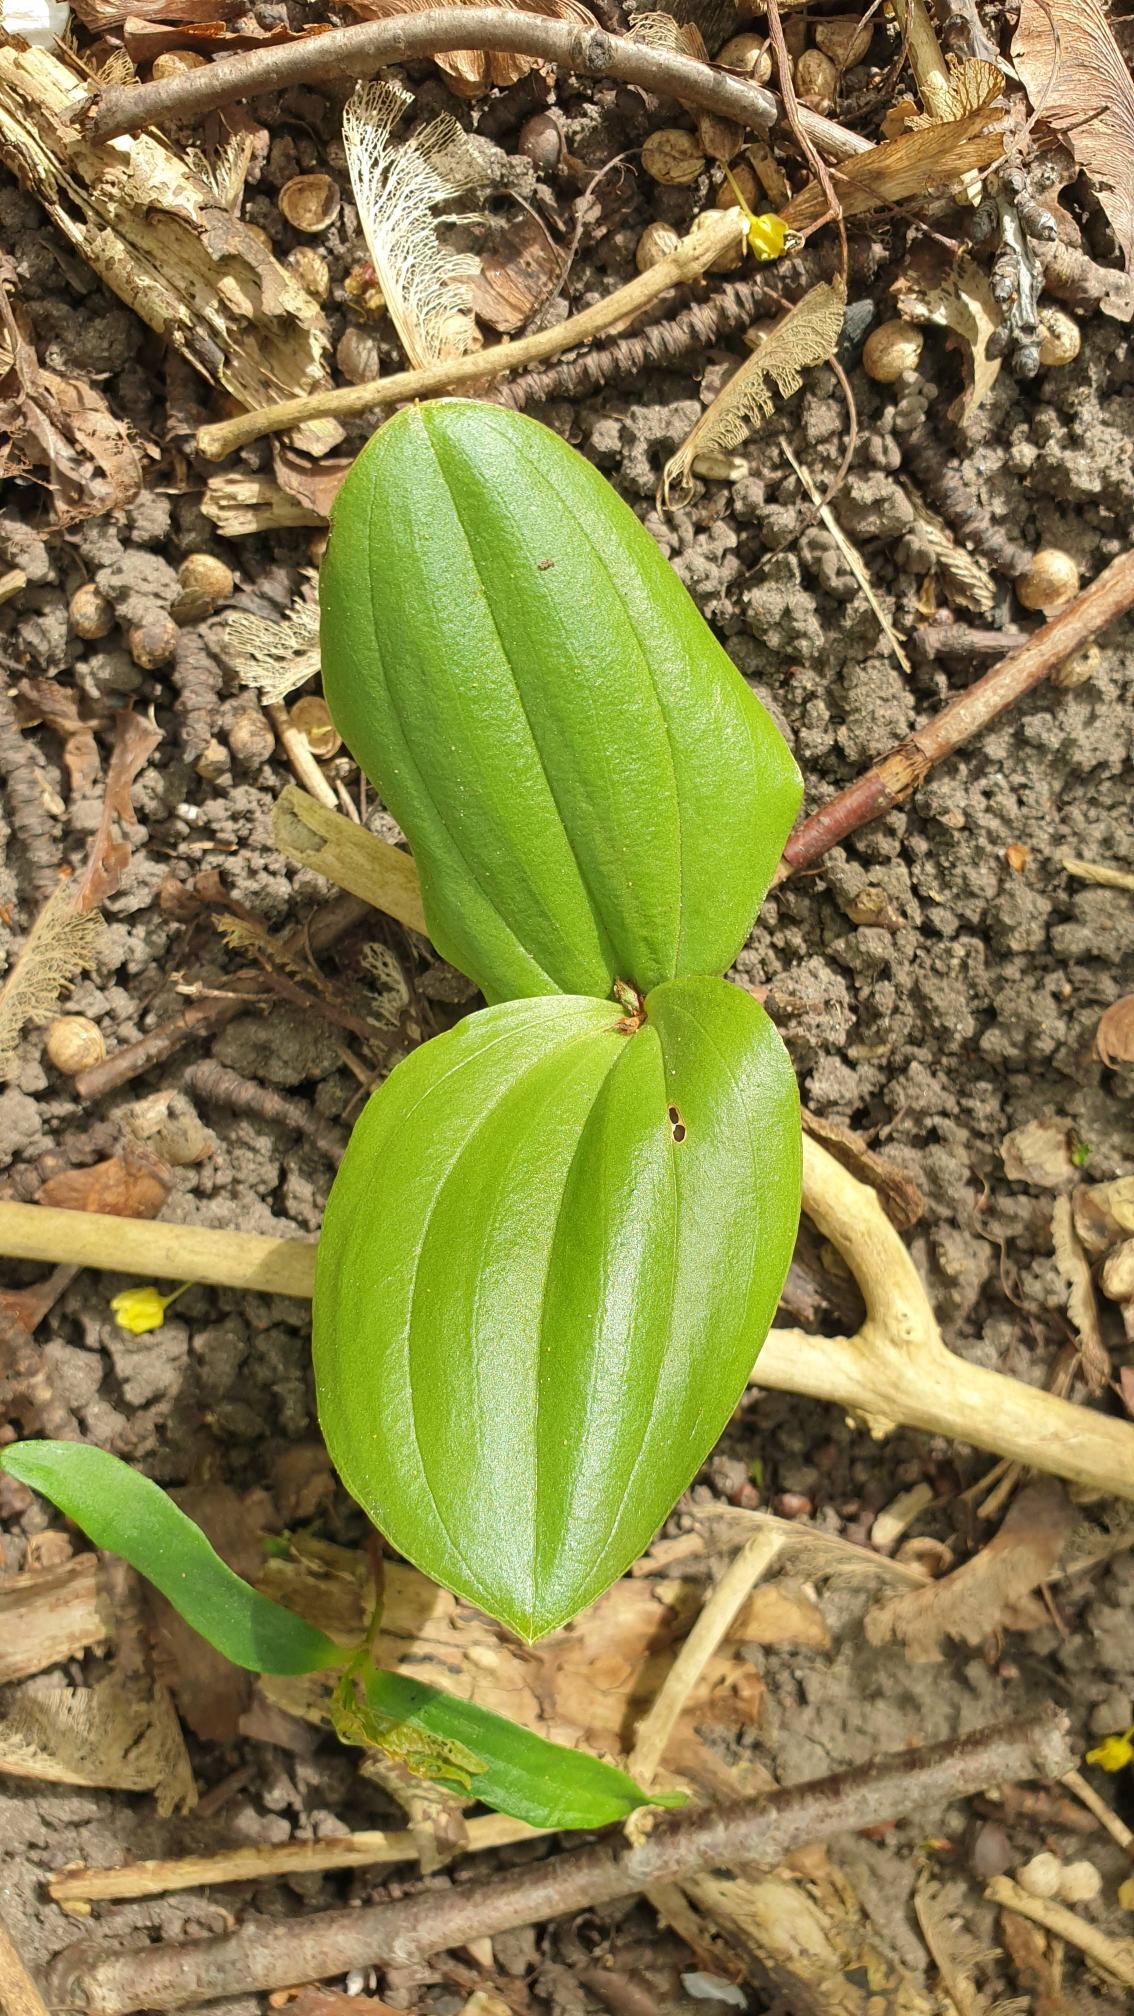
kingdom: Plantae
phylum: Tracheophyta
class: Liliopsida
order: Asparagales
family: Orchidaceae
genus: Neottia
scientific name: Neottia ovata
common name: Ægbladet fliglæbe
